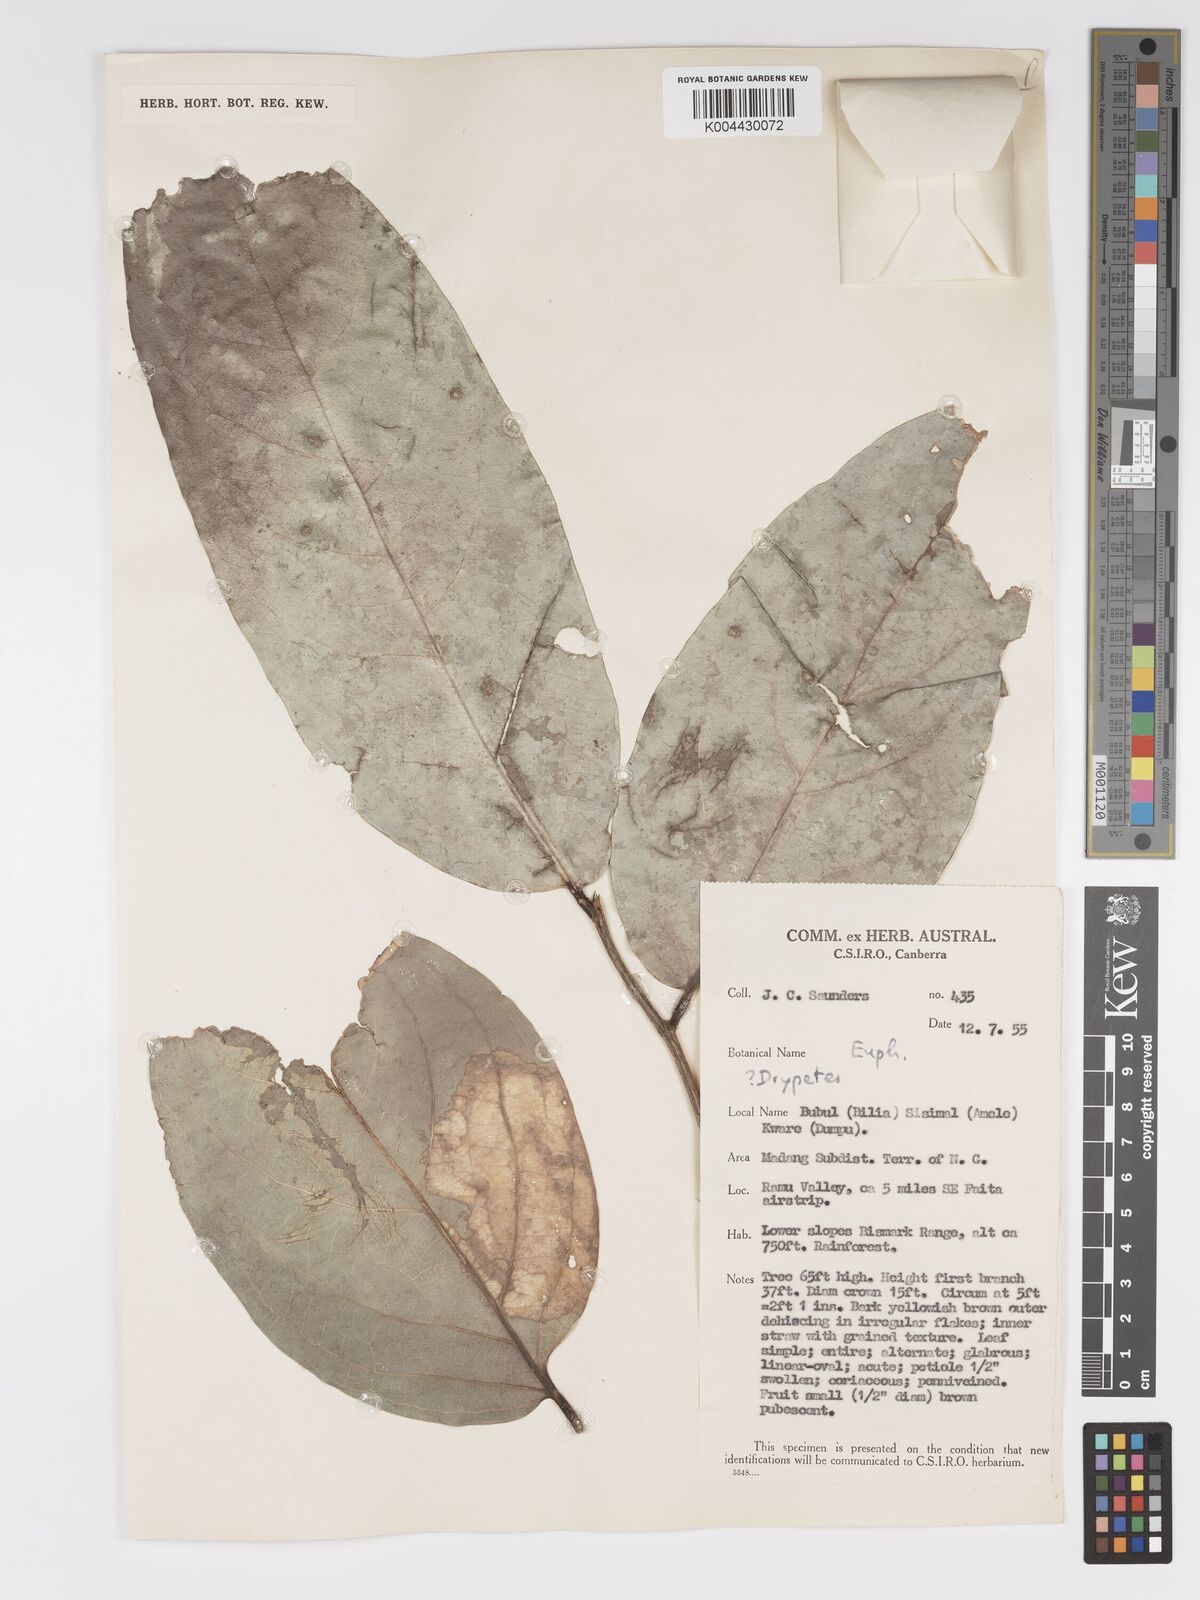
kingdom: Plantae
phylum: Tracheophyta
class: Magnoliopsida
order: Malpighiales
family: Putranjivaceae
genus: Drypetes
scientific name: Drypetes longifolia
